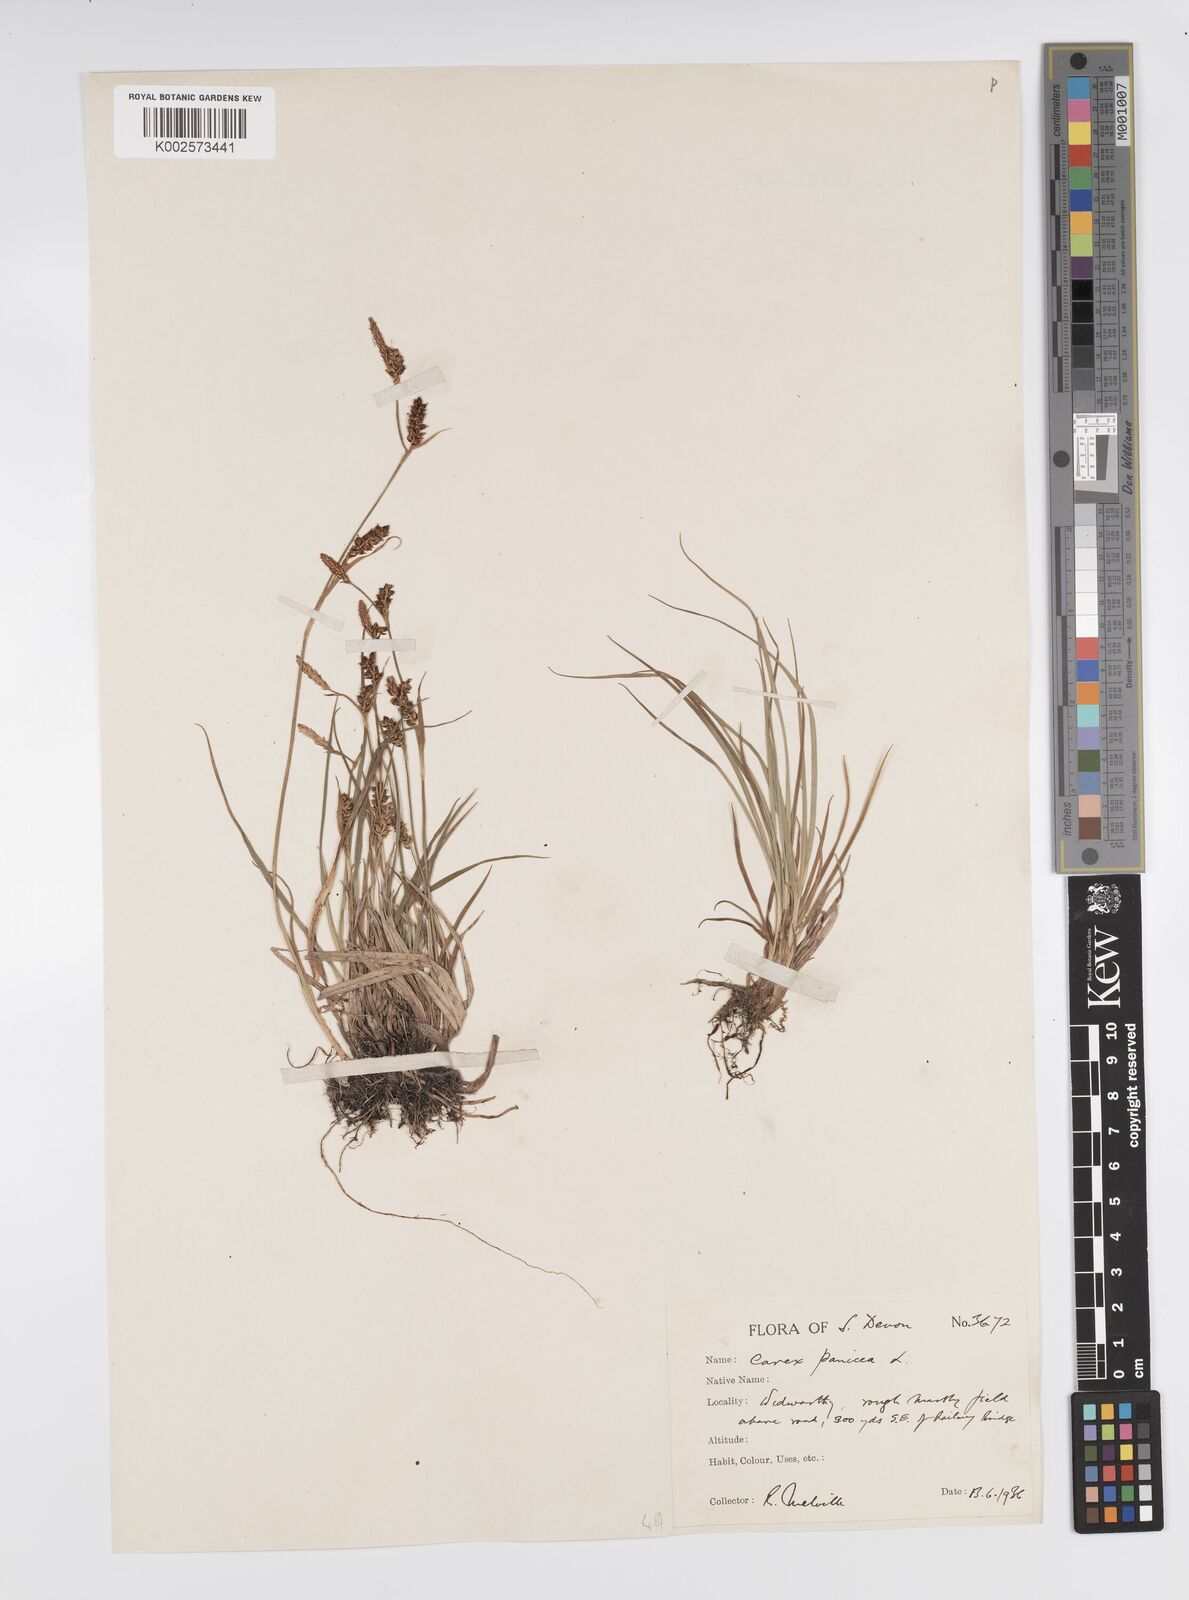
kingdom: Plantae
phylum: Tracheophyta
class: Liliopsida
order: Poales
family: Cyperaceae
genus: Carex
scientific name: Carex panicea
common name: Carnation sedge
